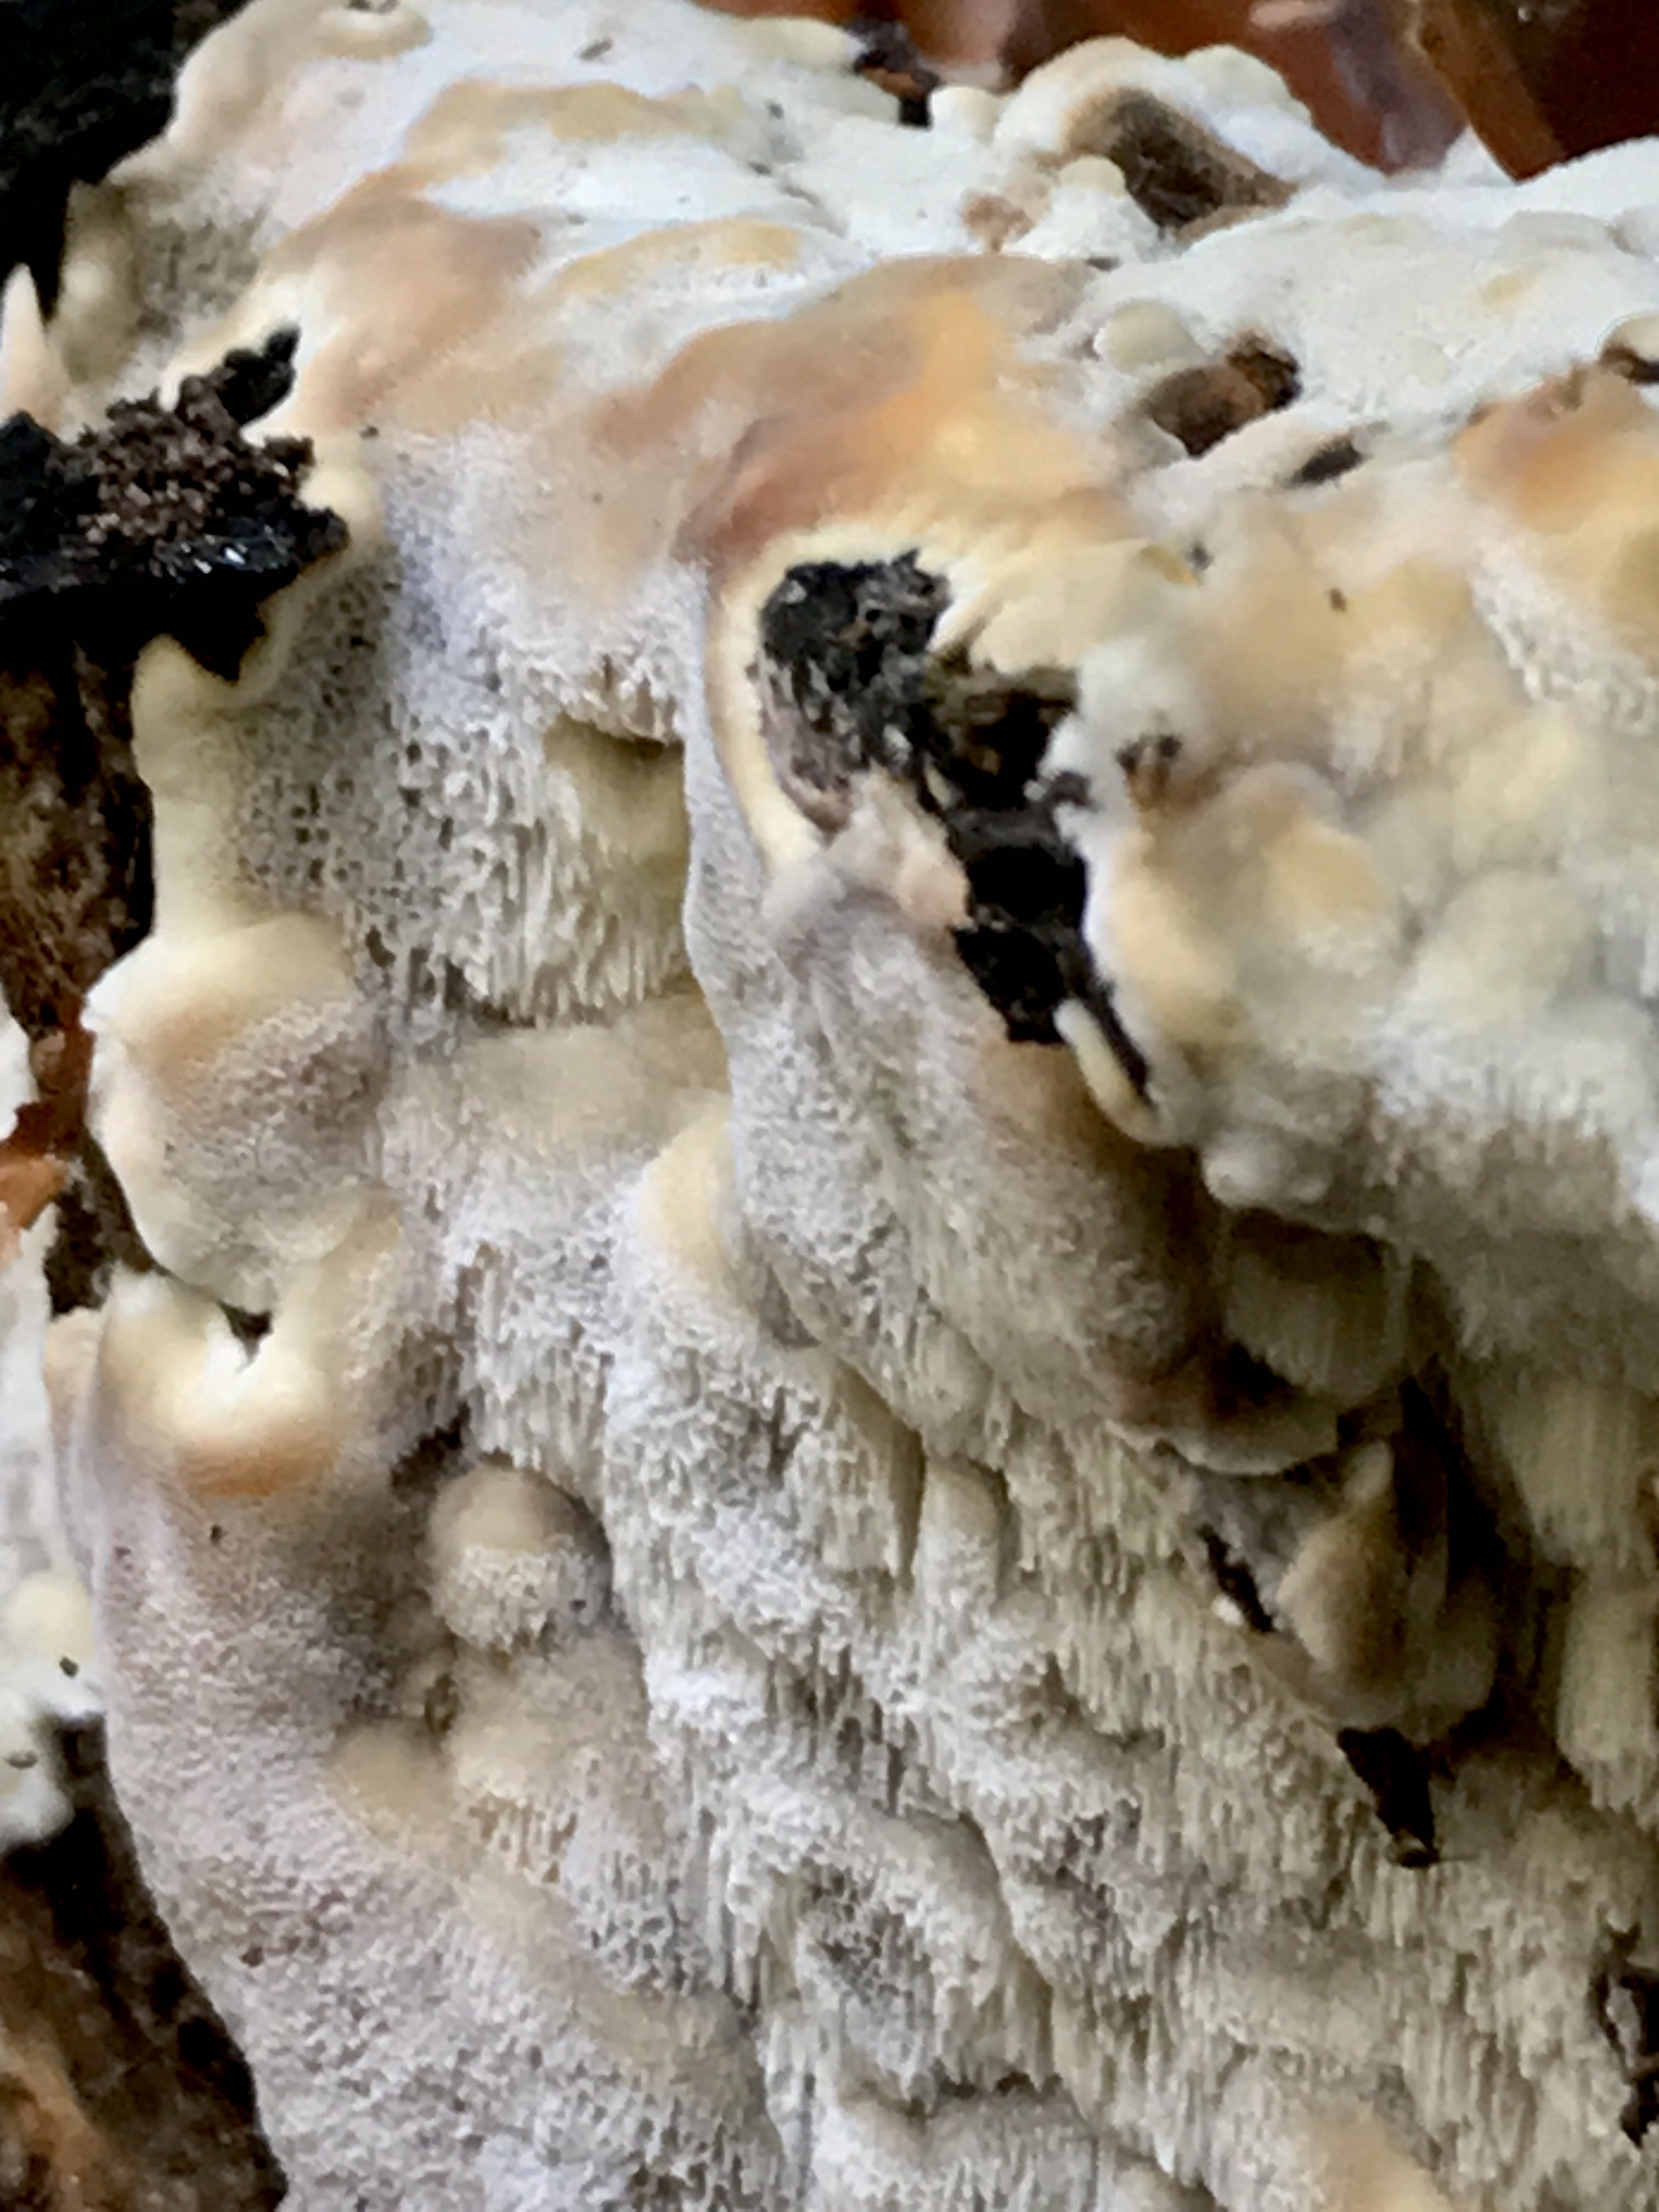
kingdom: Fungi
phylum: Basidiomycota
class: Agaricomycetes
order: Polyporales
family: Meruliaceae
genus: Physisporinus
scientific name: Physisporinus vitreus
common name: mastesvamp
